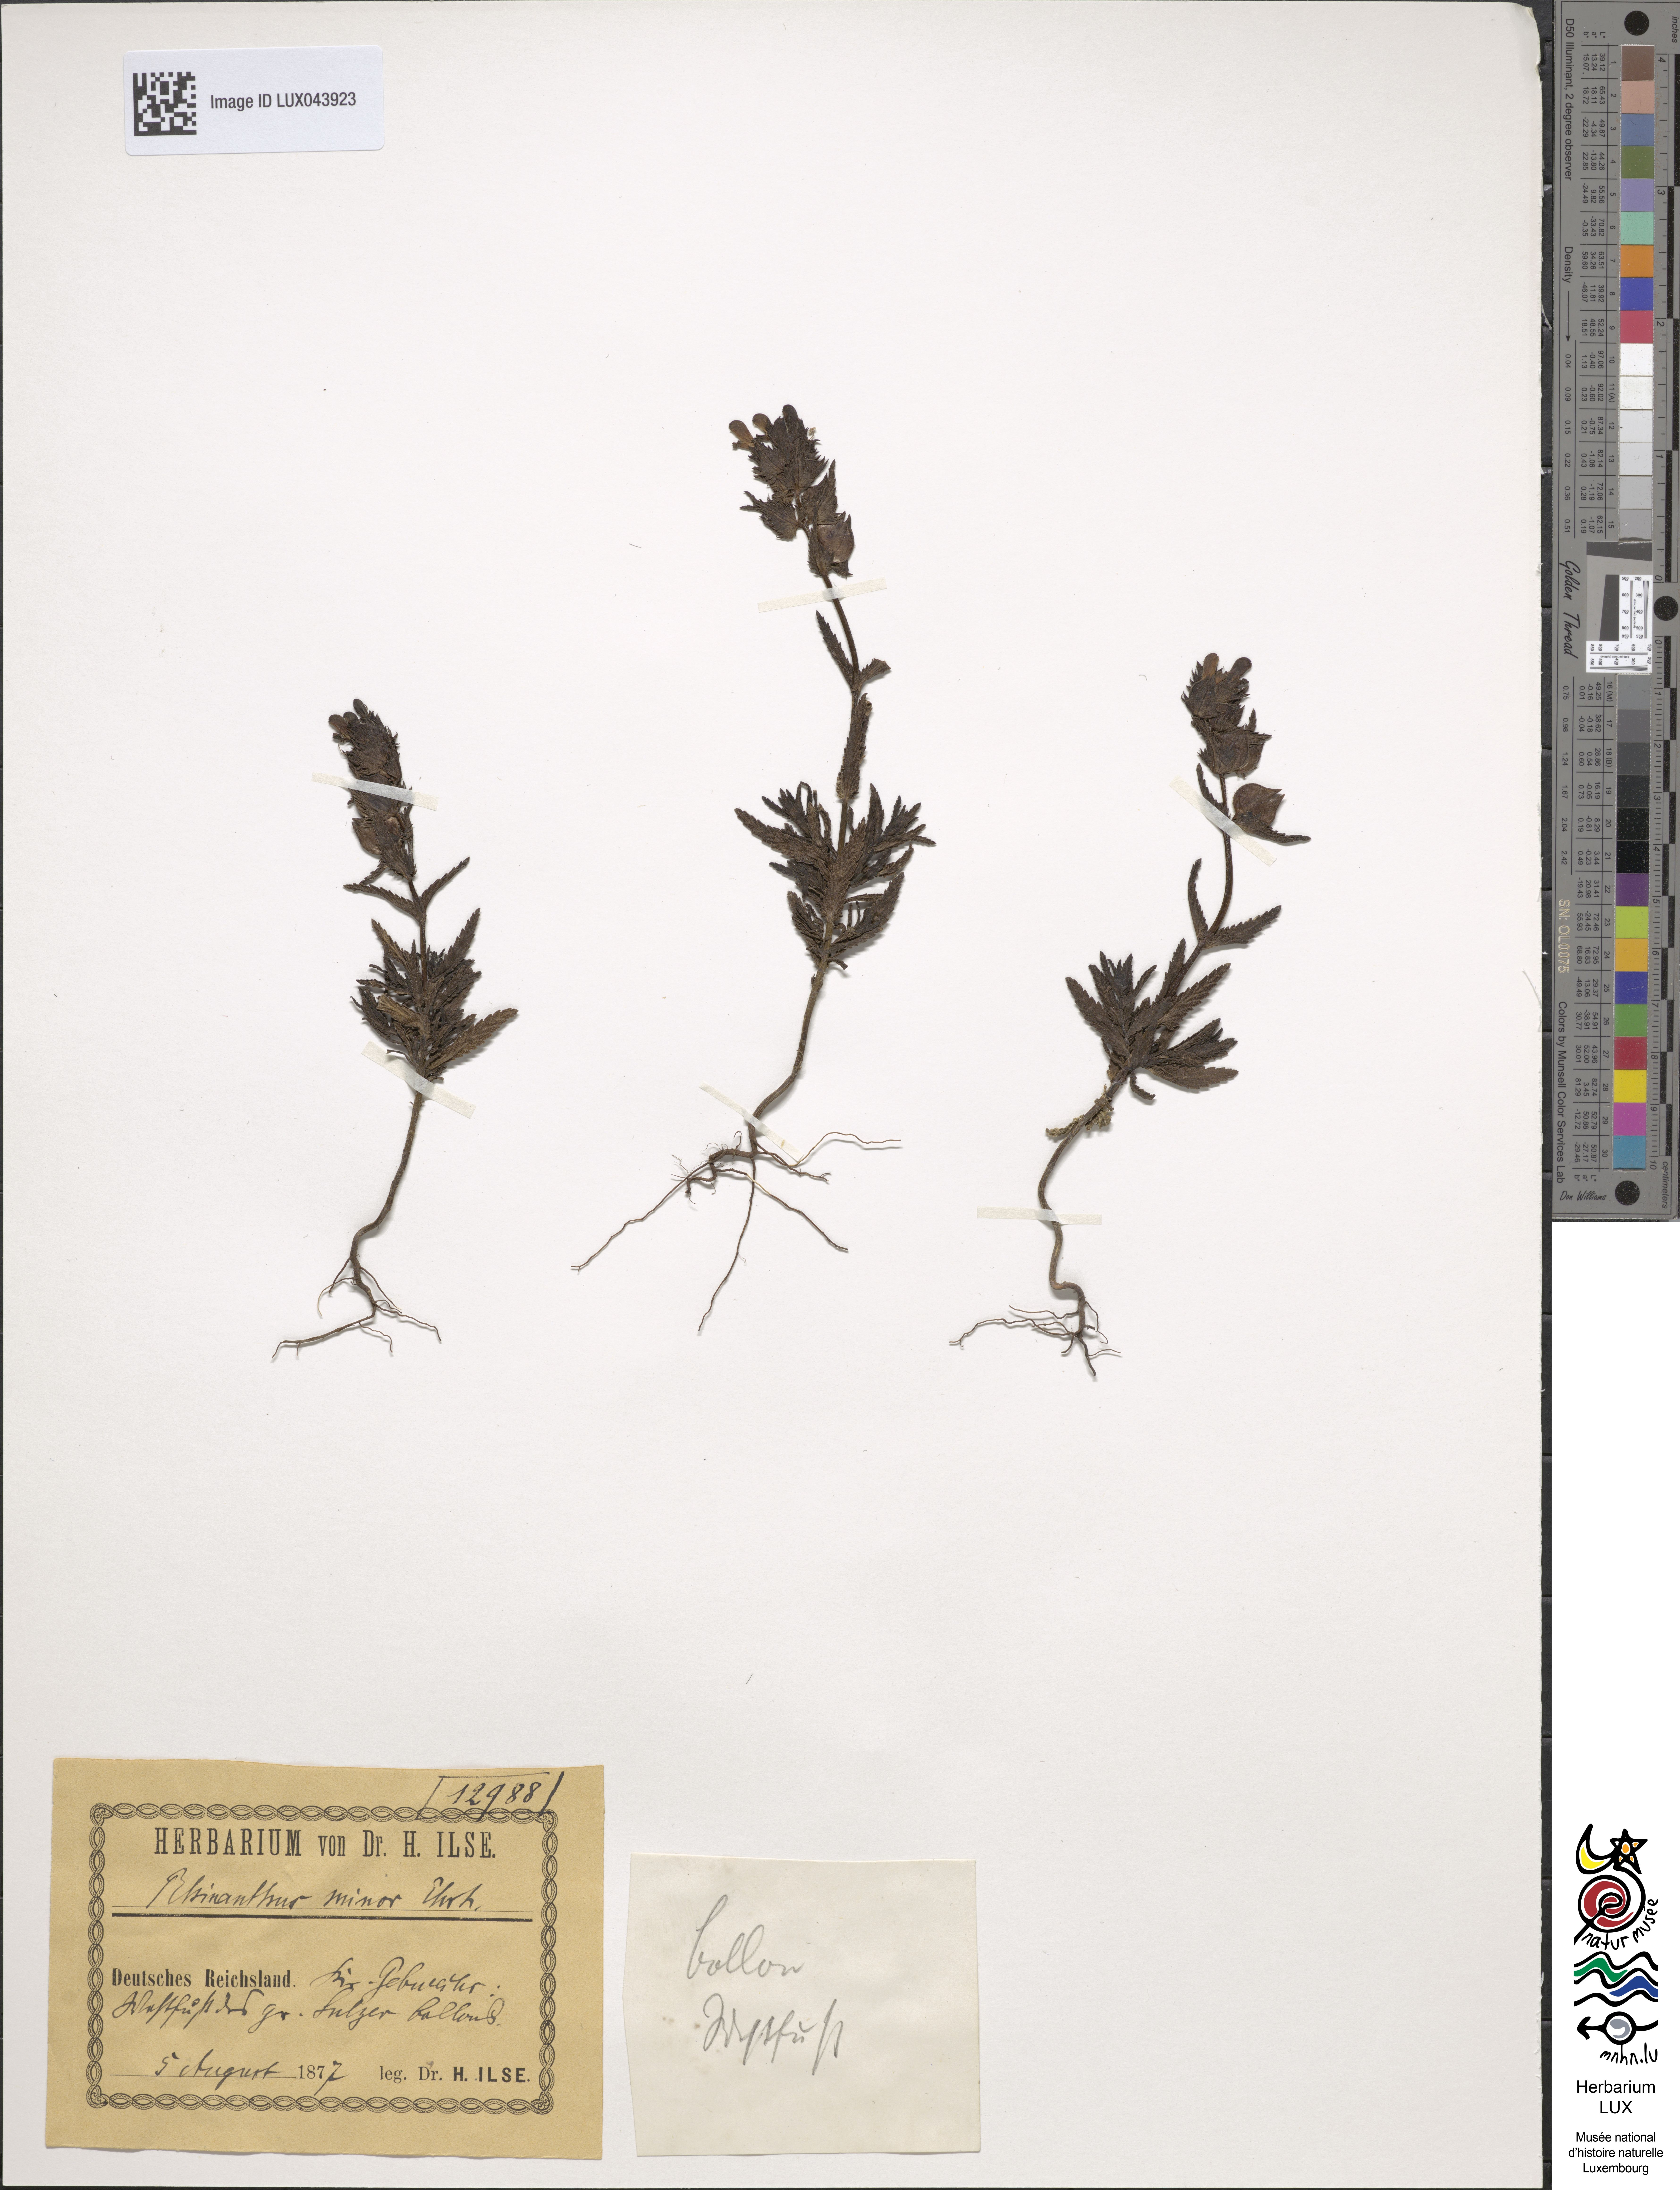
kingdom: Plantae
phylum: Tracheophyta
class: Magnoliopsida
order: Lamiales
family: Orobanchaceae
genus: Rhinanthus
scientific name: Rhinanthus minor
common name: Yellow-rattle
